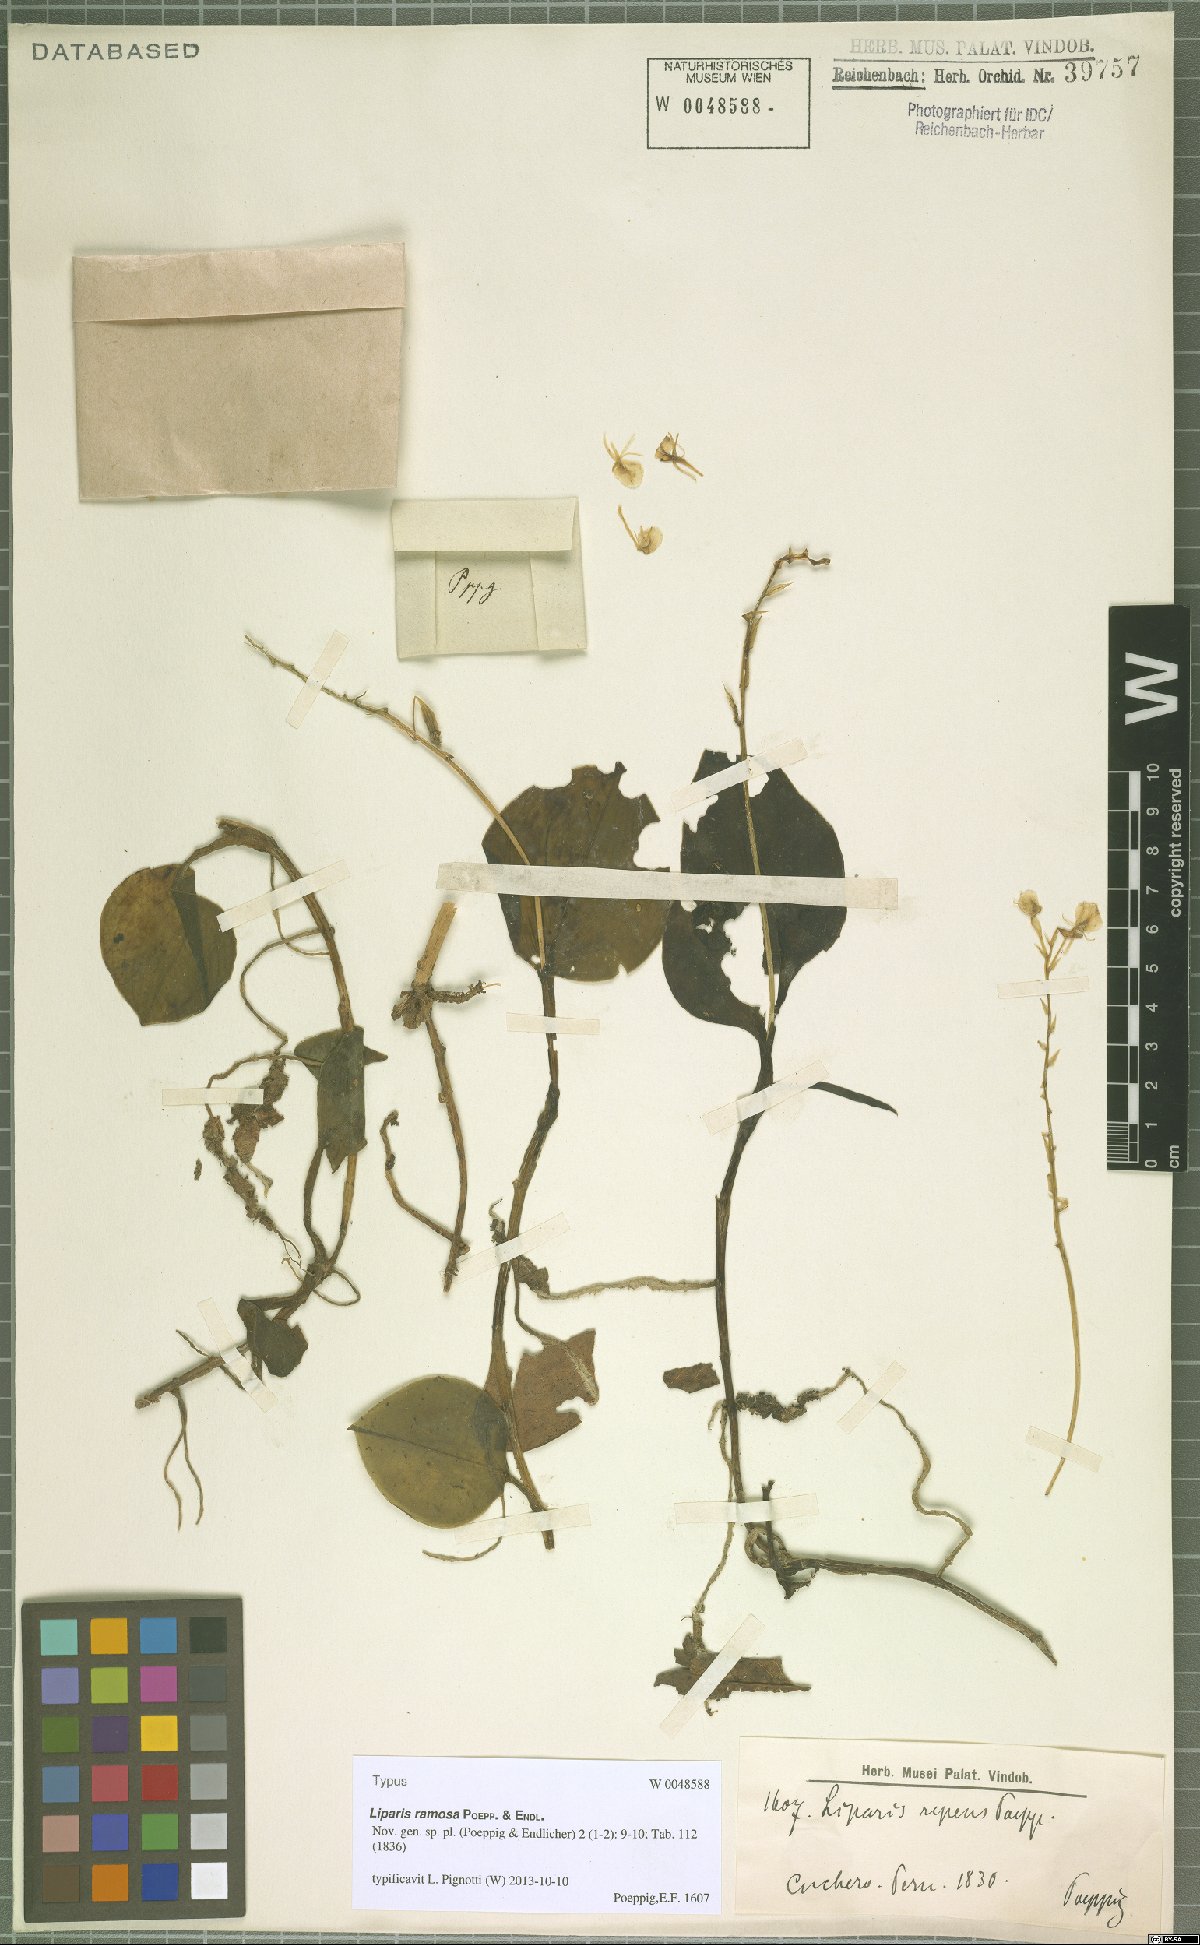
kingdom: Plantae
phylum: Tracheophyta
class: Liliopsida
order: Asparagales
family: Orchidaceae
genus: Liparis
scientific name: Liparis ramosa
